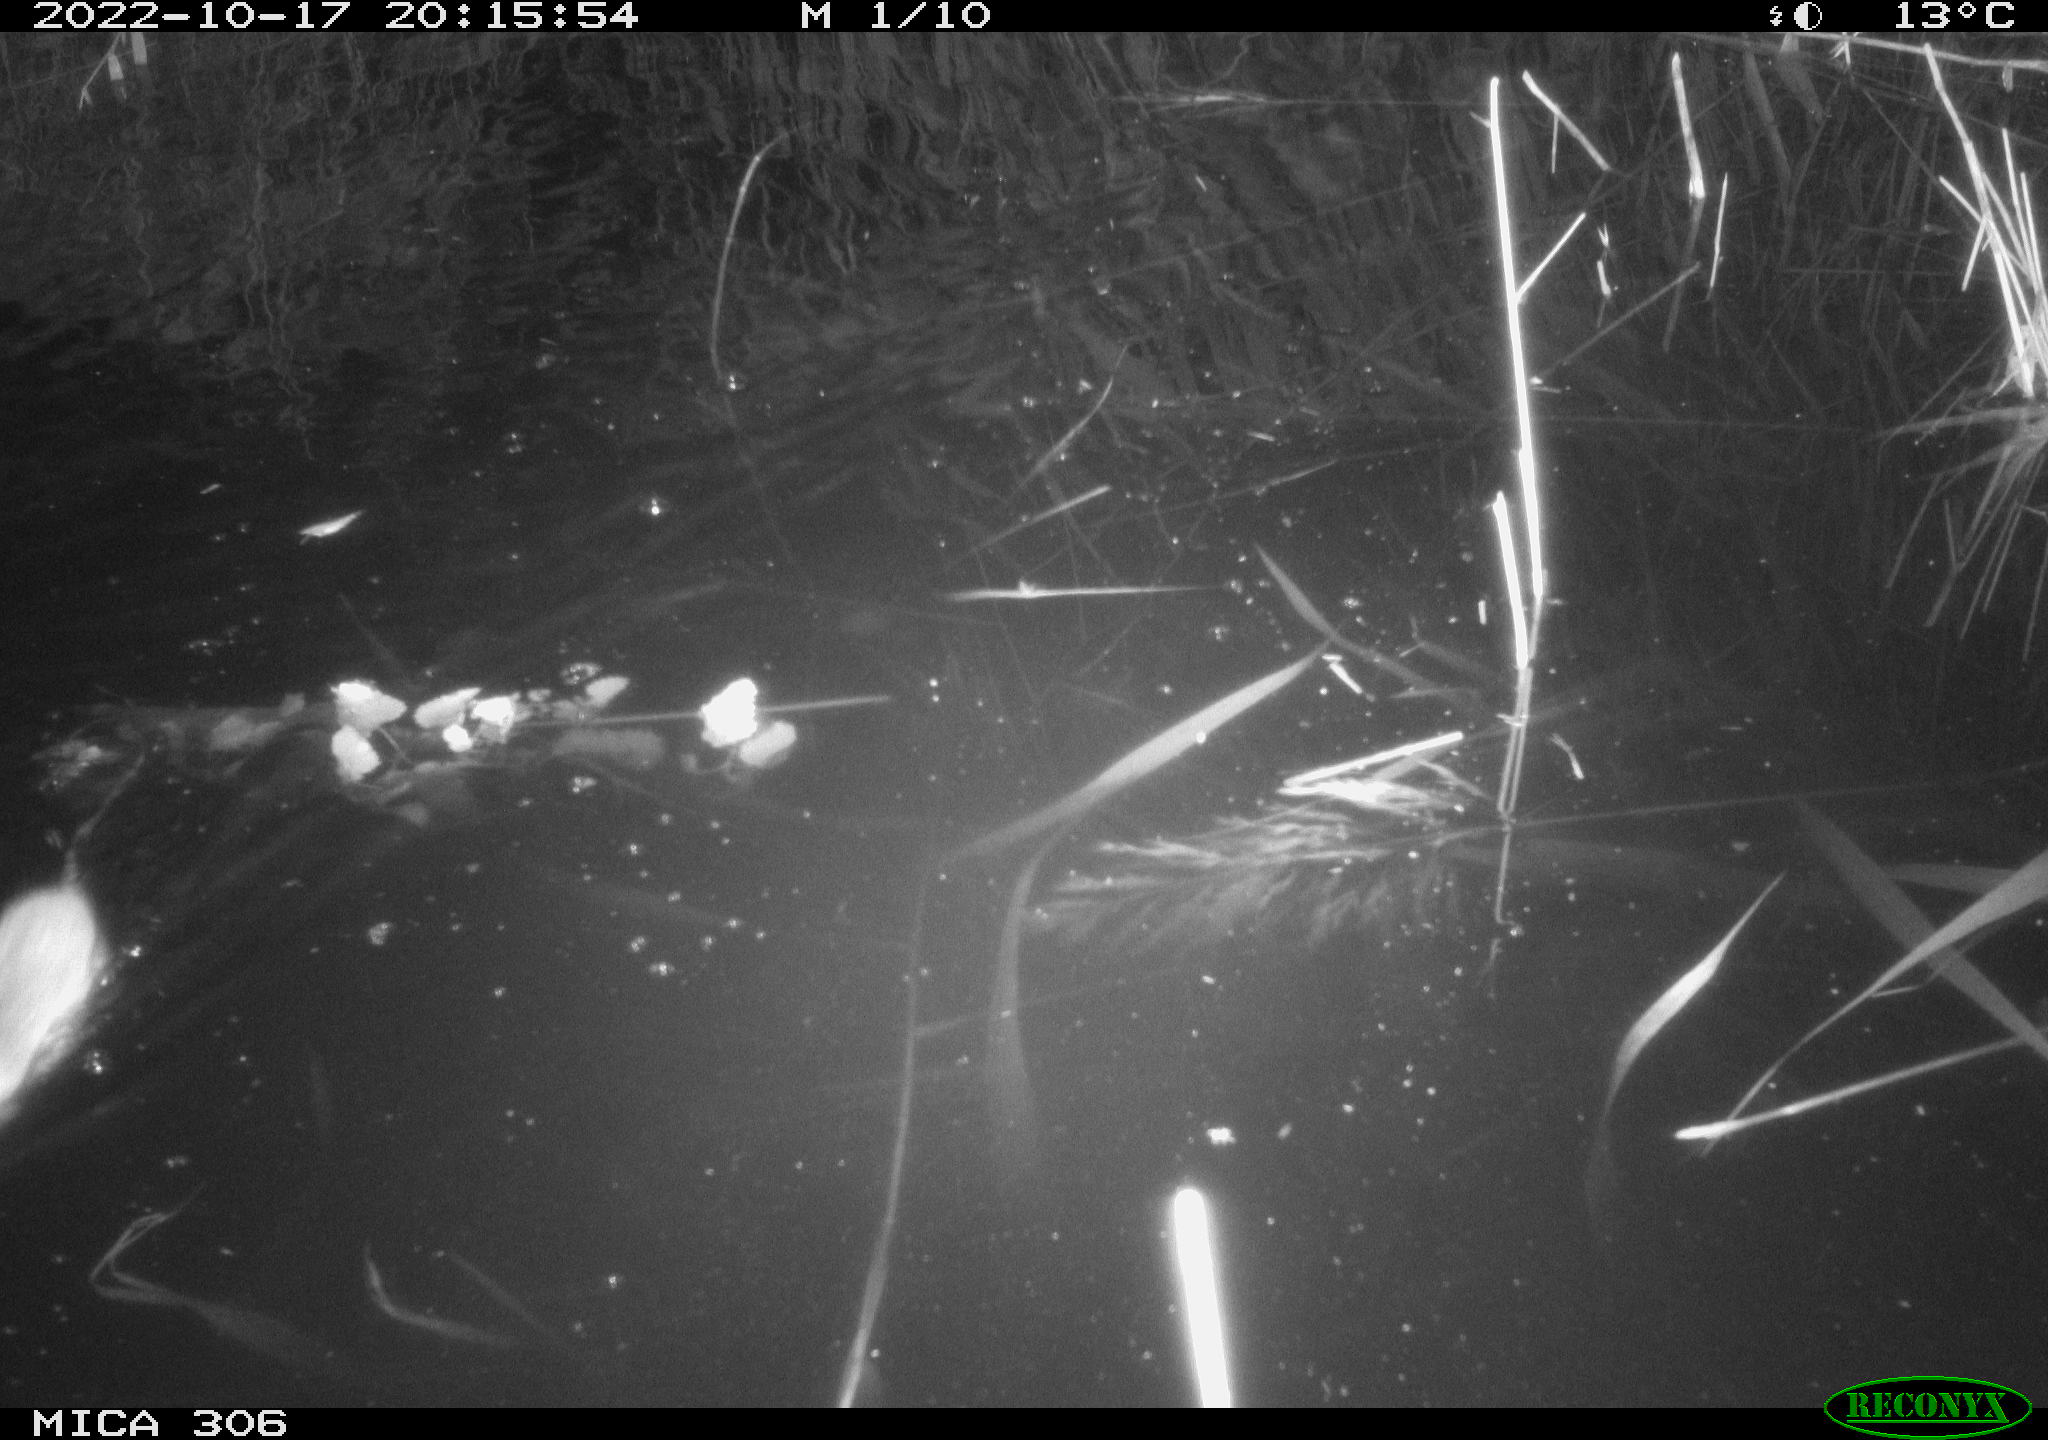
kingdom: Animalia
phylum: Chordata
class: Mammalia
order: Rodentia
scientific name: Rodentia
